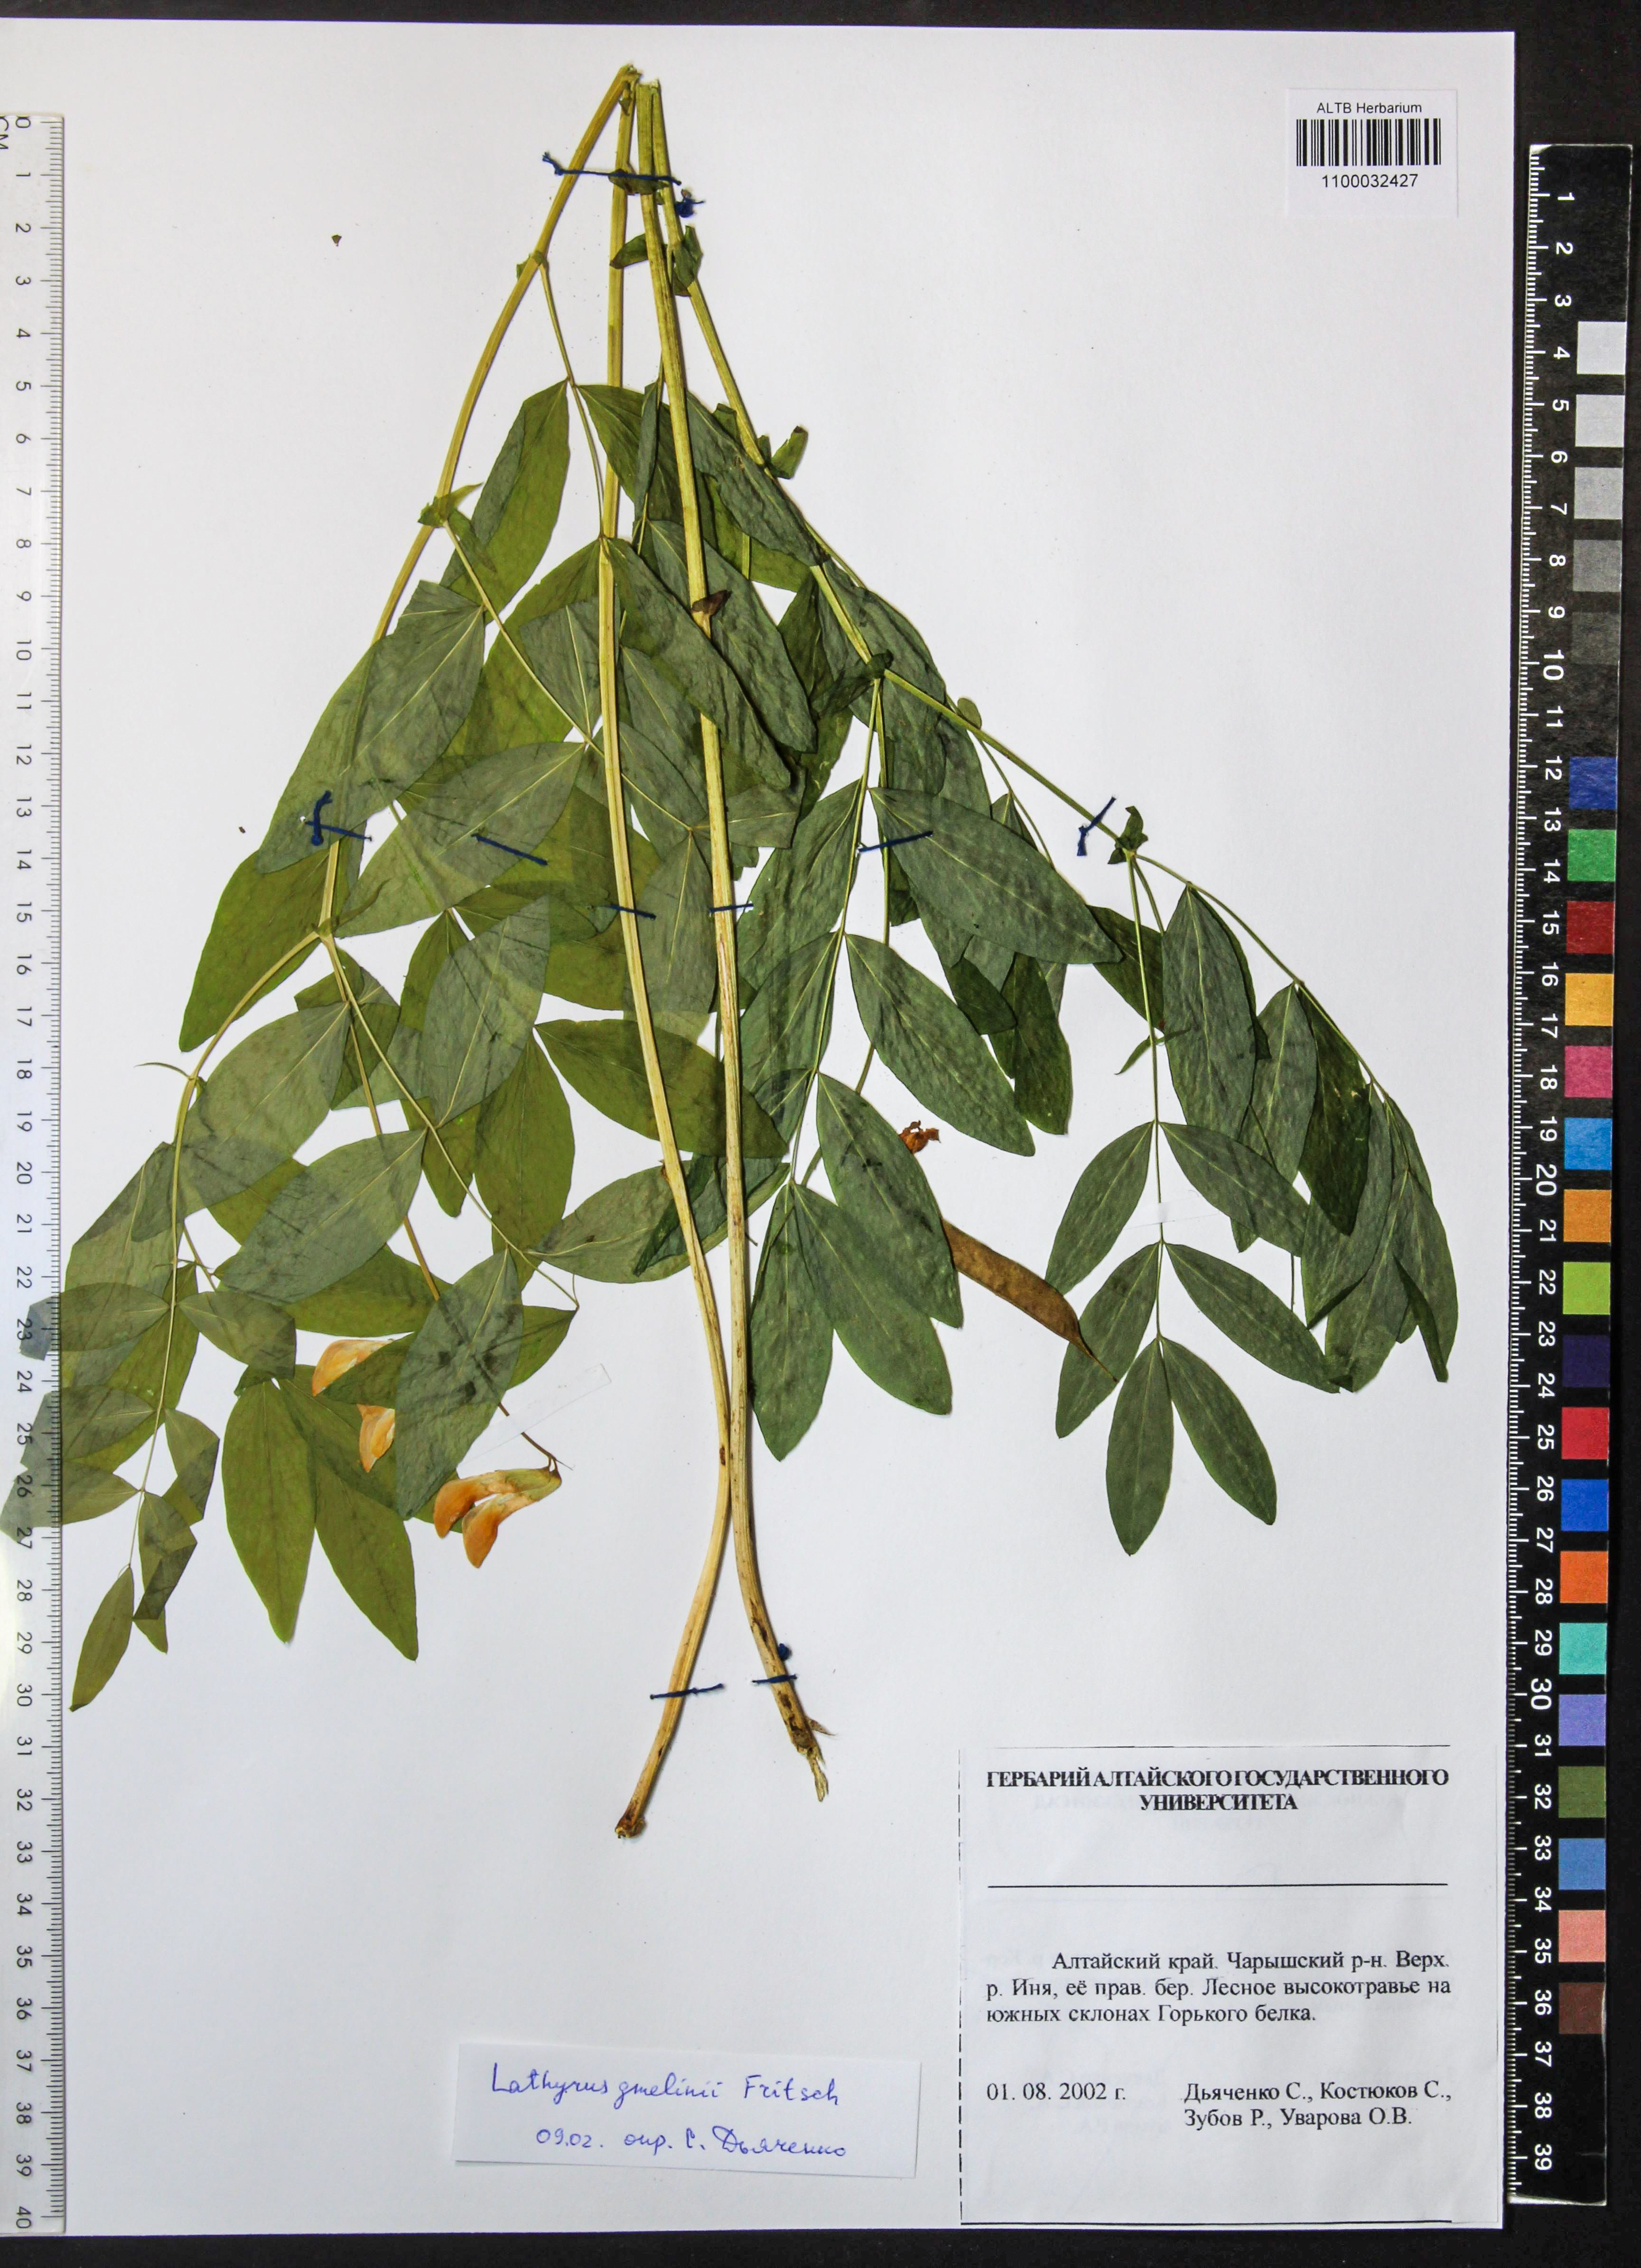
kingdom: Plantae
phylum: Tracheophyta
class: Magnoliopsida
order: Fabales
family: Fabaceae
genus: Lathyrus
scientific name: Lathyrus gmelinii
